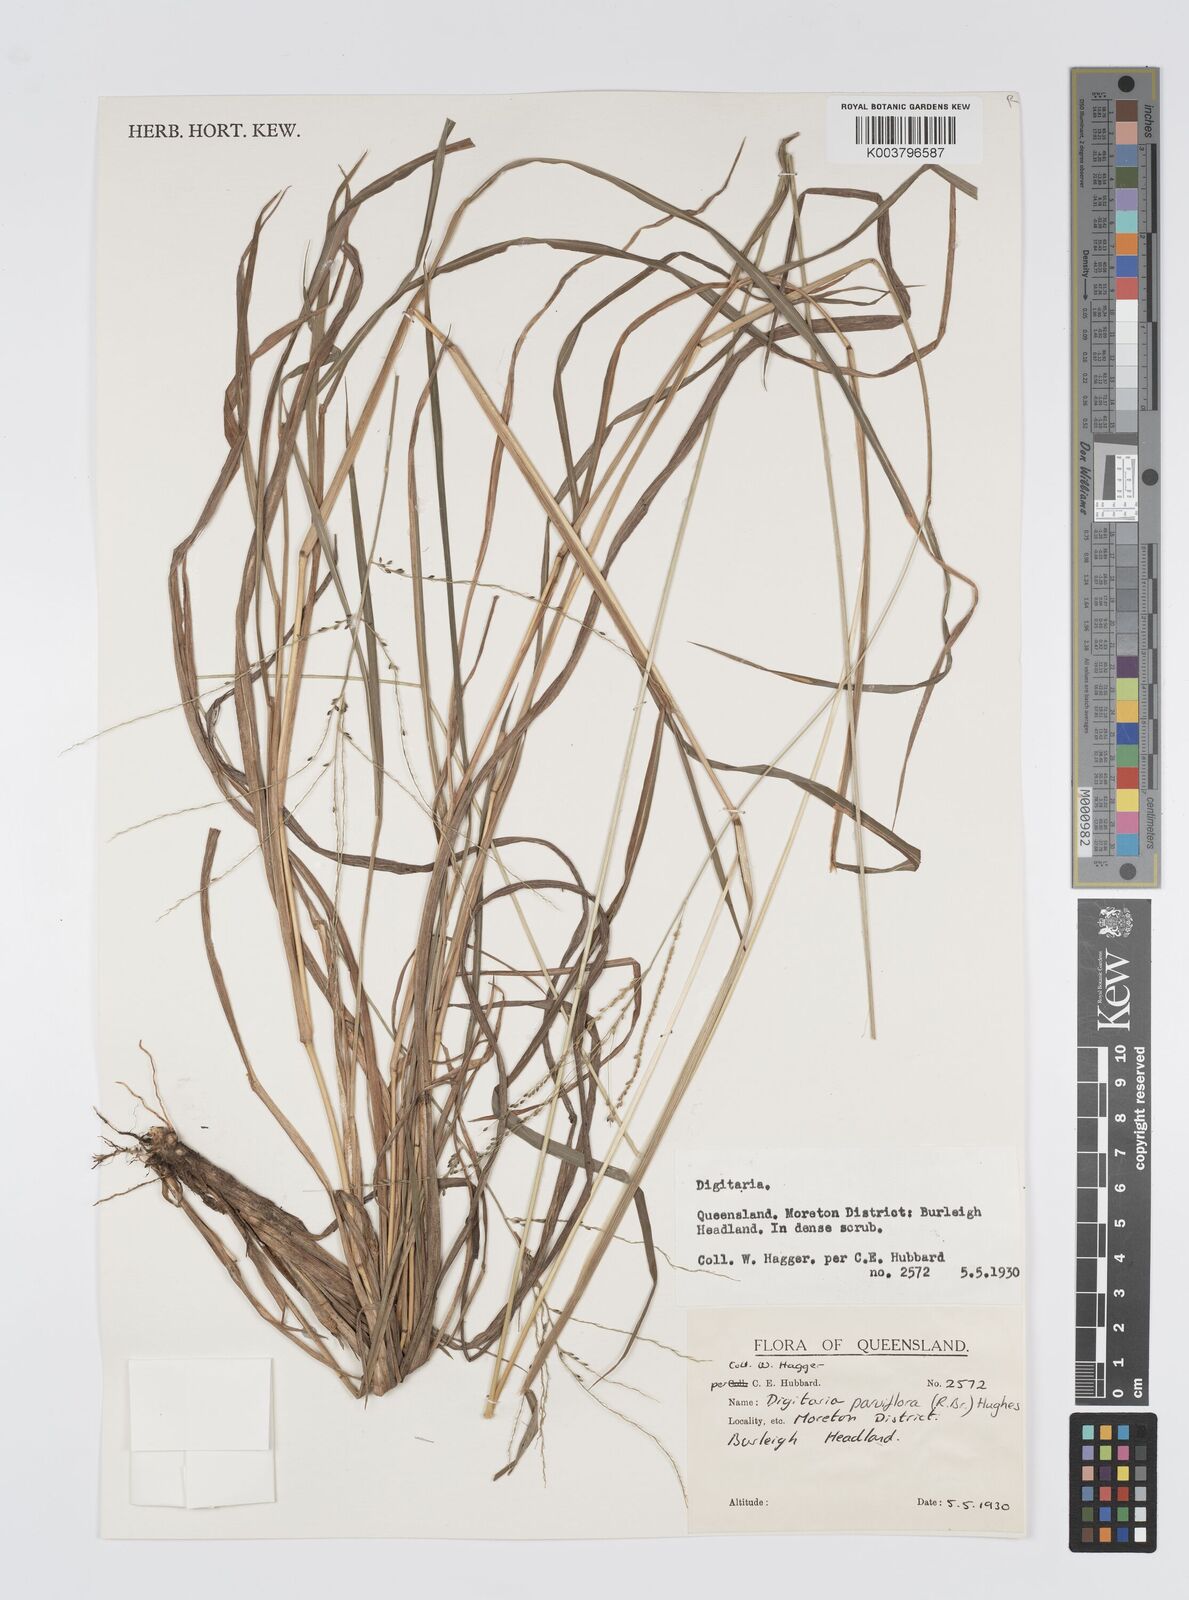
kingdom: Plantae
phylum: Tracheophyta
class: Liliopsida
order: Poales
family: Poaceae
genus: Digitaria
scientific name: Digitaria parviflora
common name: Small-flower finger grass
